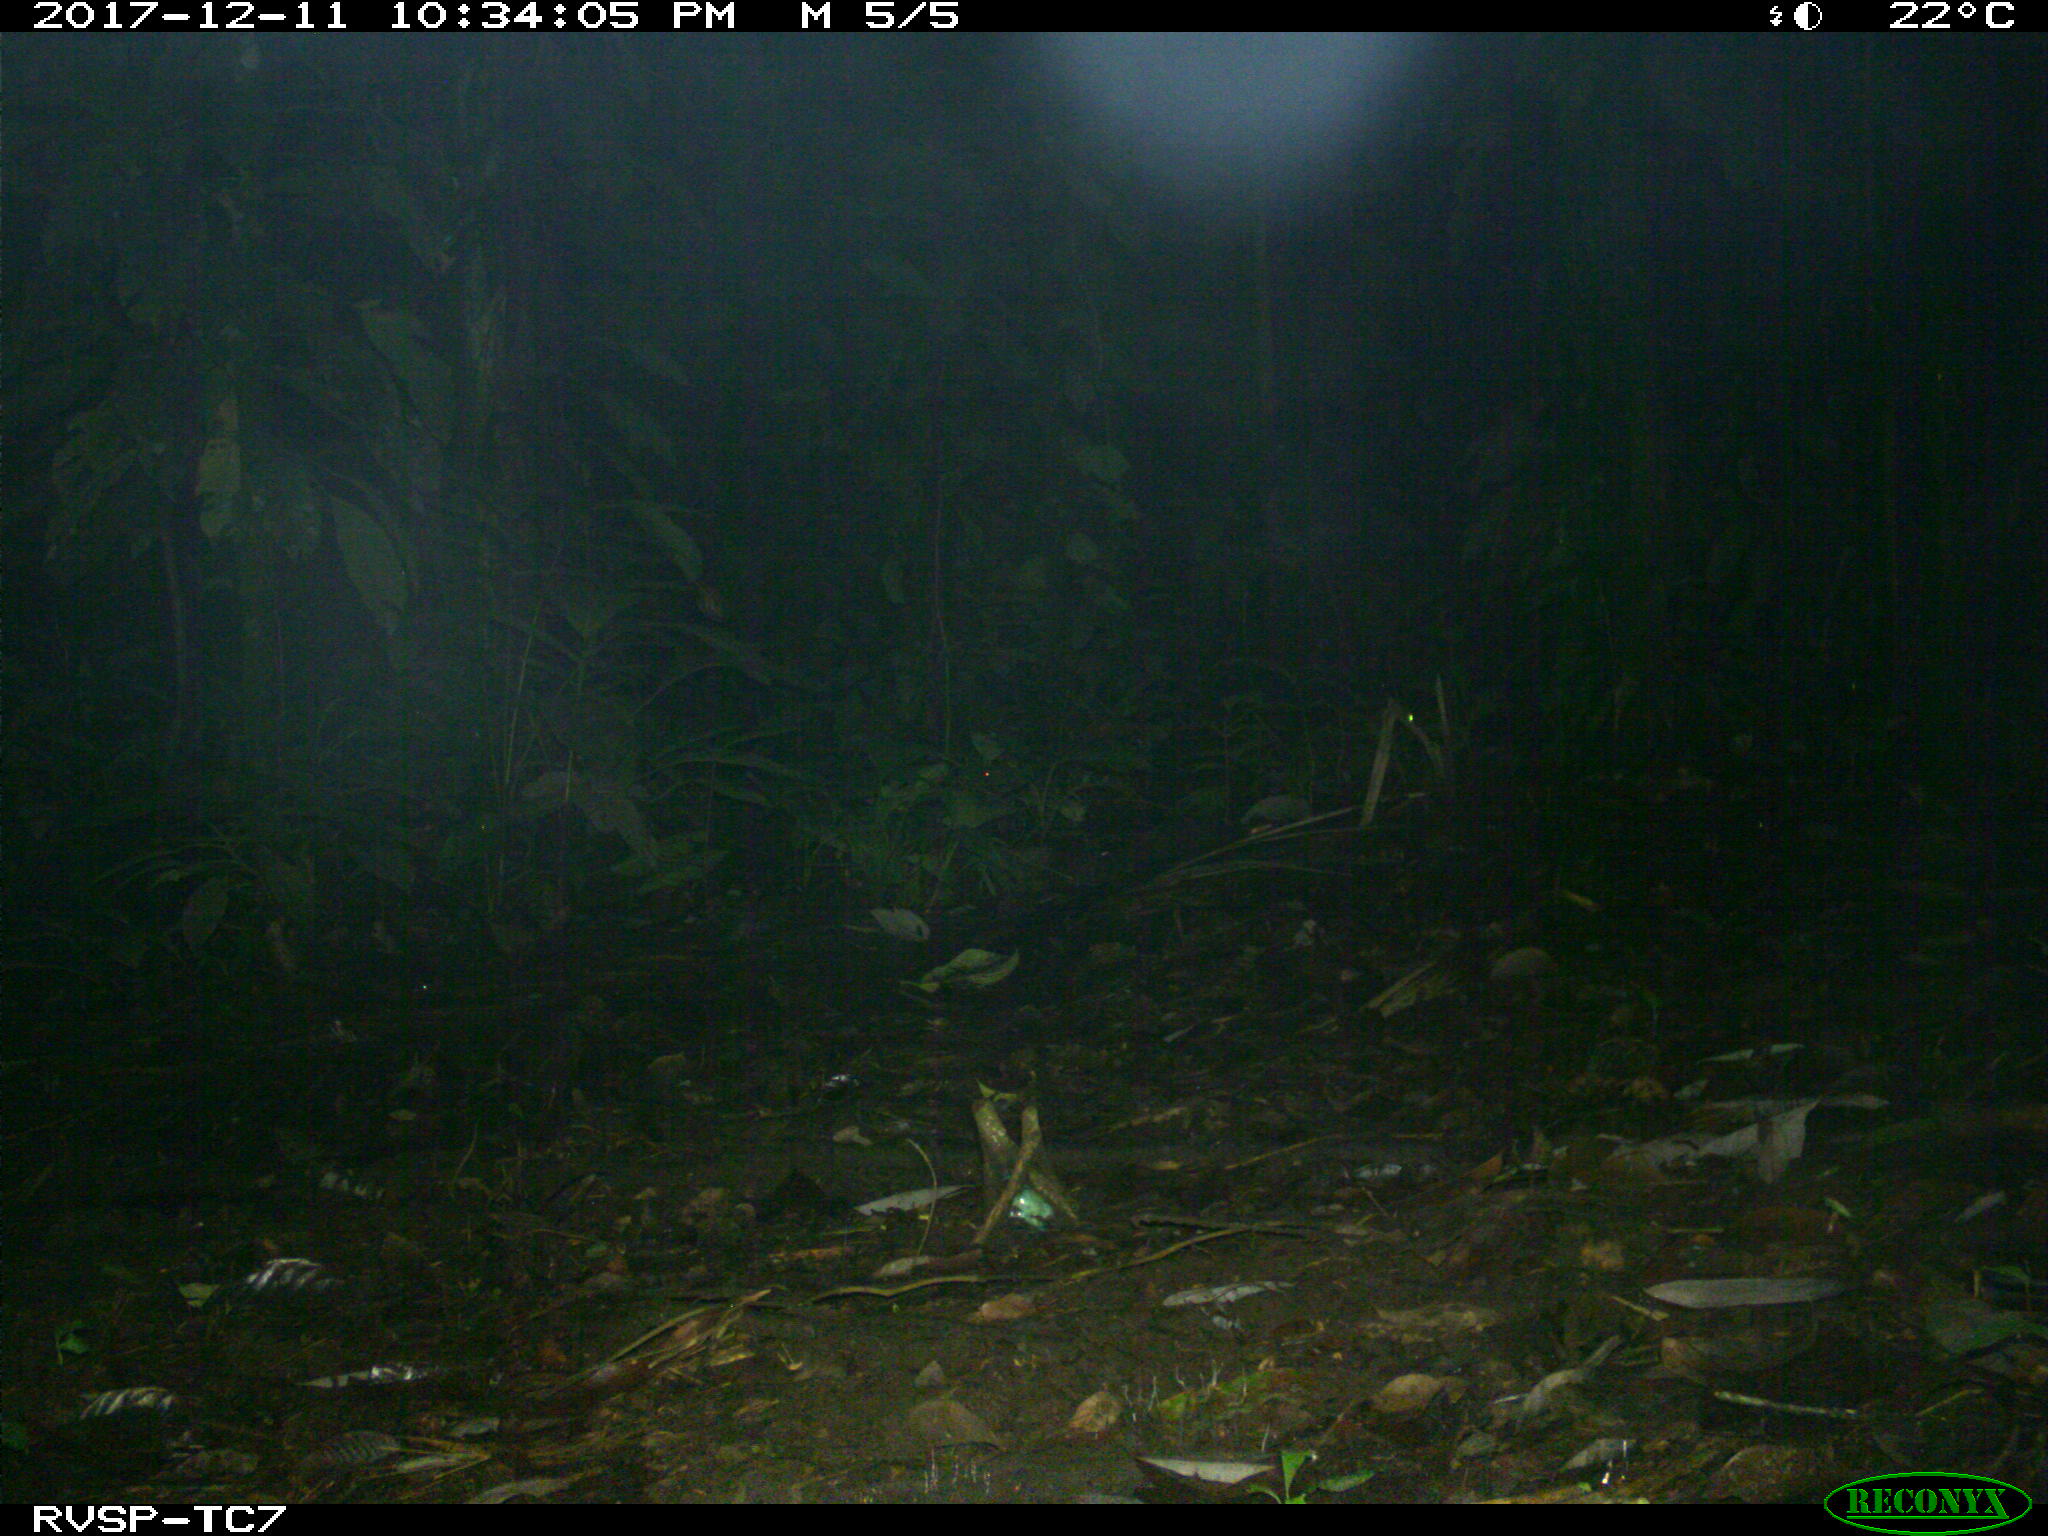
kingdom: Animalia
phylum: Chordata
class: Mammalia
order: Carnivora
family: Felidae
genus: Leopardus
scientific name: Leopardus pardalis
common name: Ocelot
